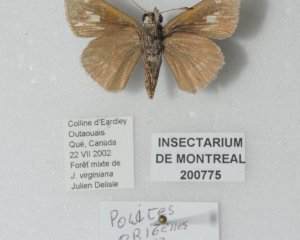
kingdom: Animalia
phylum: Arthropoda
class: Insecta
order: Lepidoptera
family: Hesperiidae
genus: Polites
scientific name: Polites
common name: Crossline Skipper
